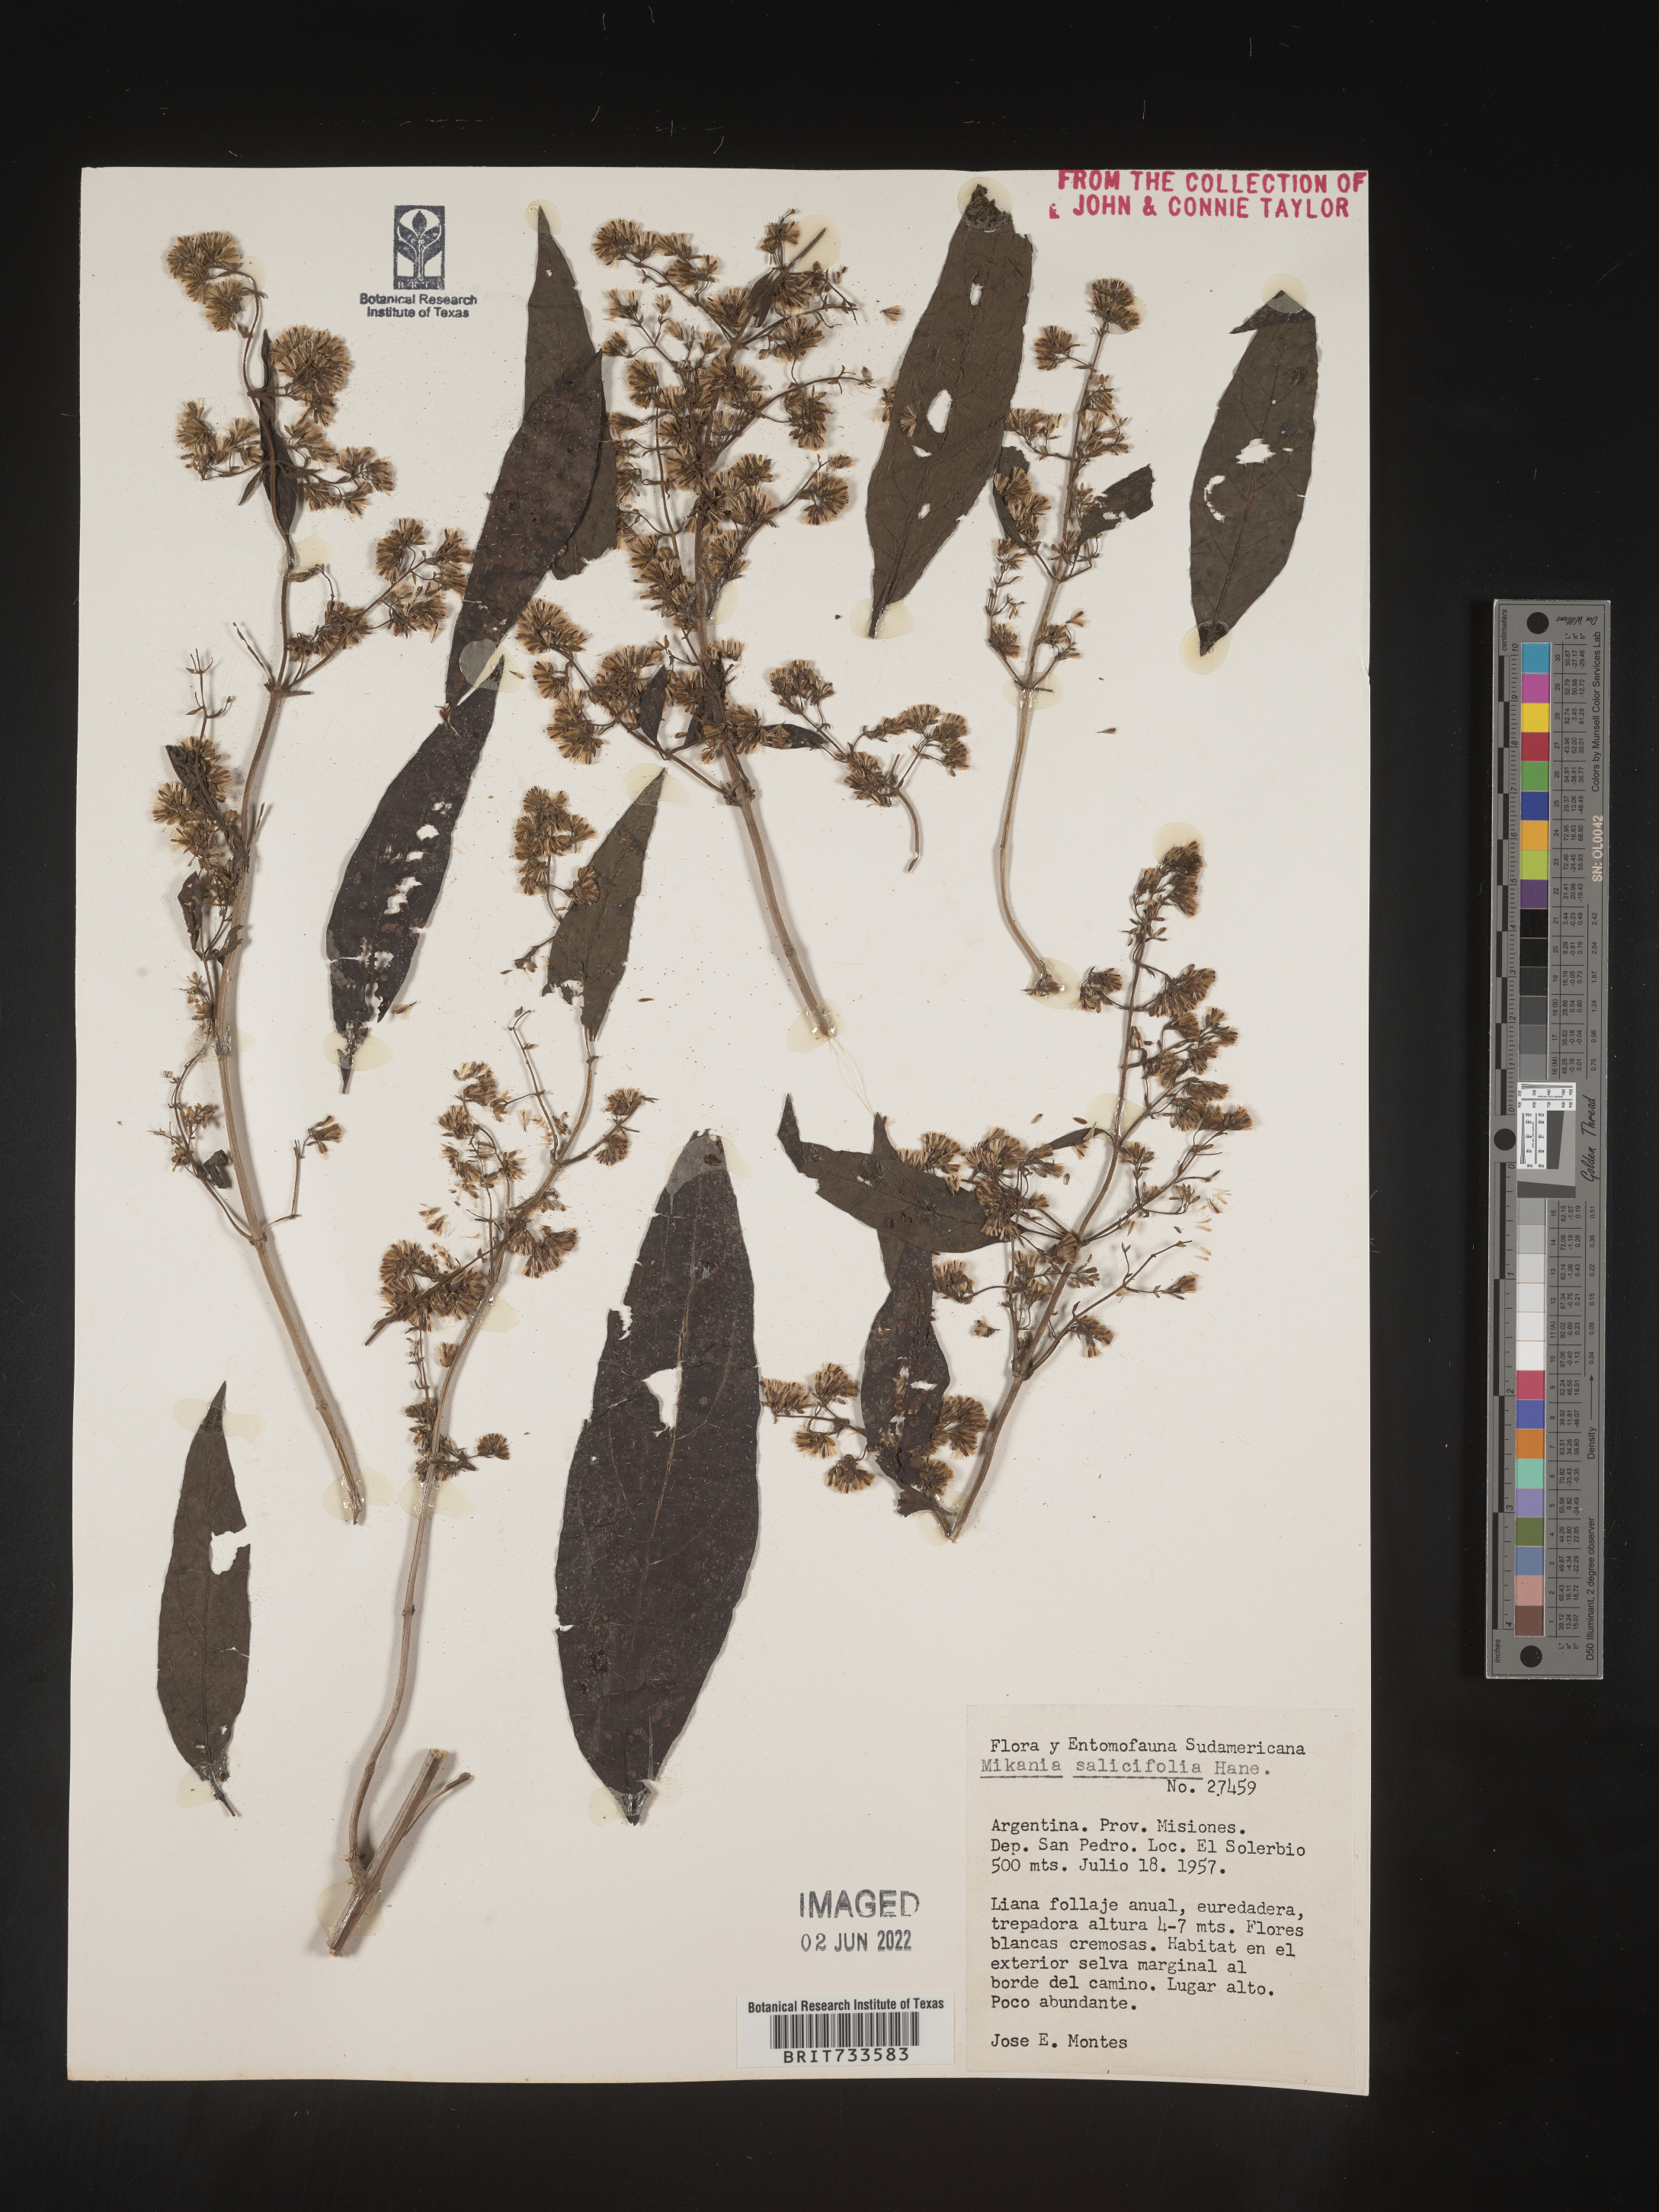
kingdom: Plantae
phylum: Tracheophyta
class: Magnoliopsida
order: Asterales
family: Asteraceae
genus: Mikania
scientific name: Mikania
